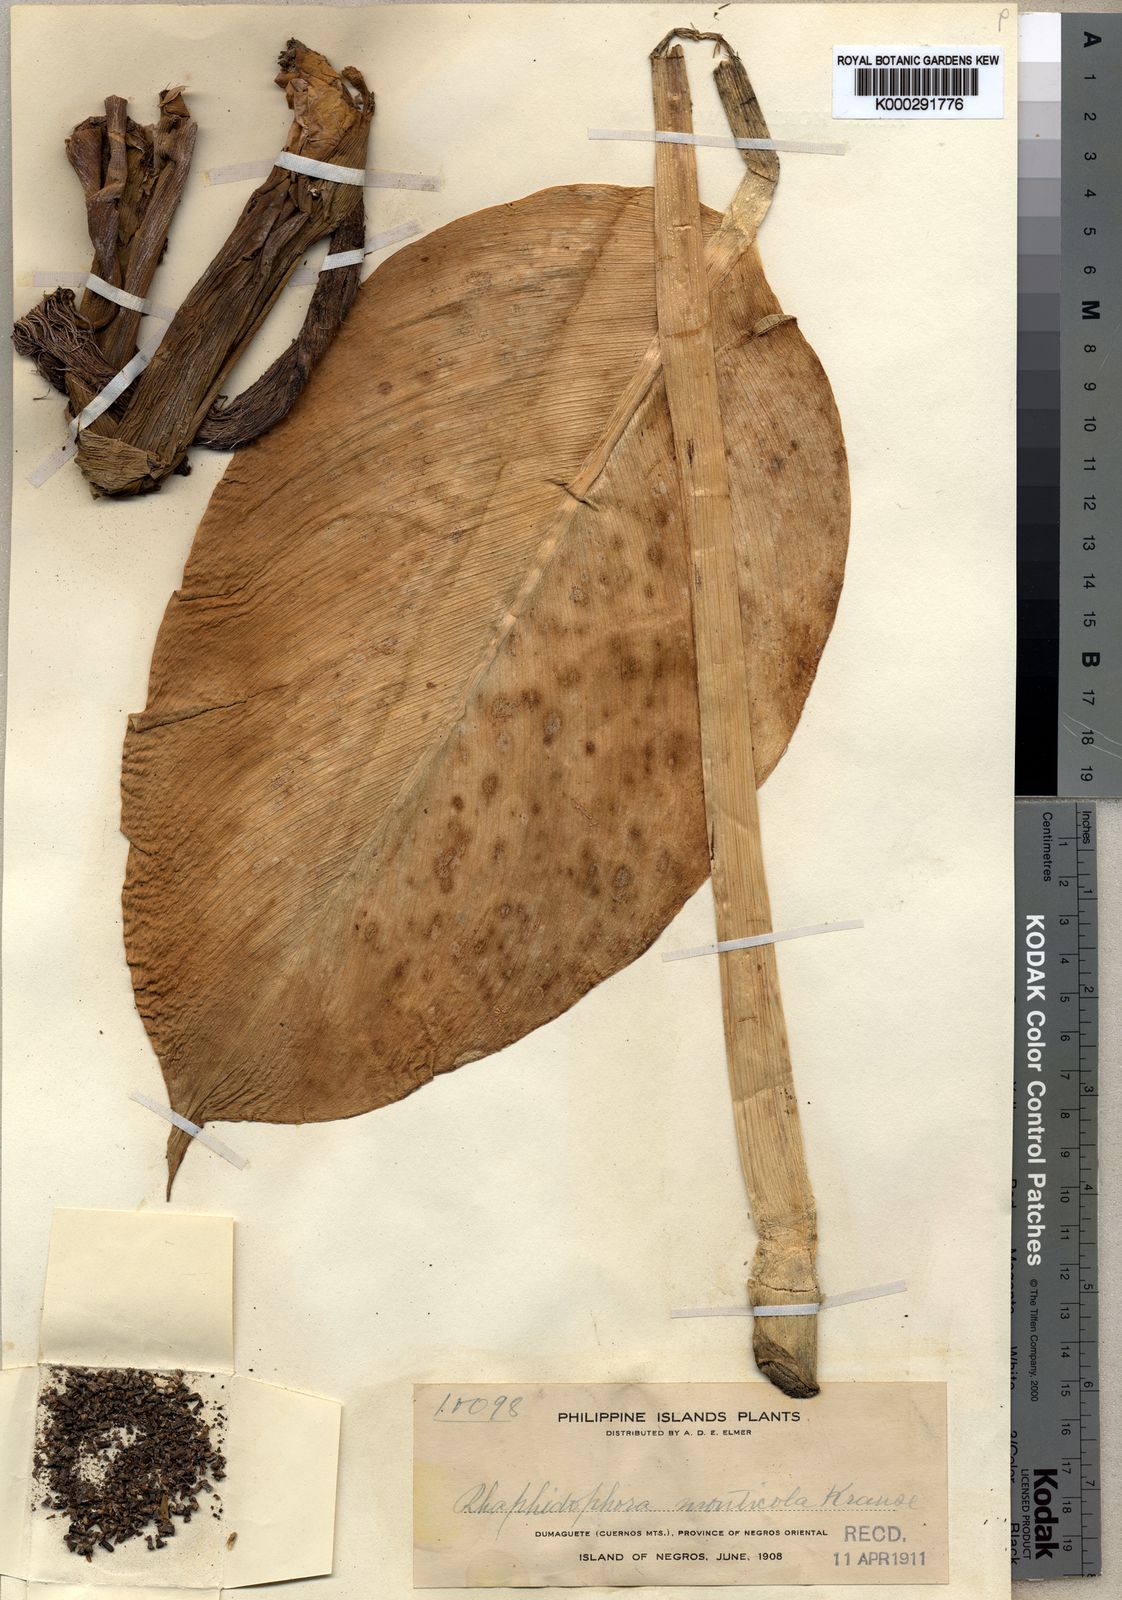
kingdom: Plantae
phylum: Tracheophyta
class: Liliopsida
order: Alismatales
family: Araceae
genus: Rhaphidophora
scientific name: Rhaphidophora monticola
